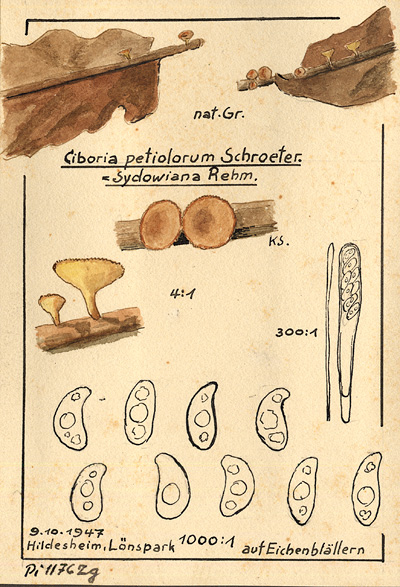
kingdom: Plantae
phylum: Tracheophyta
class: Magnoliopsida
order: Fagales
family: Fagaceae
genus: Quercus
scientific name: Quercus
